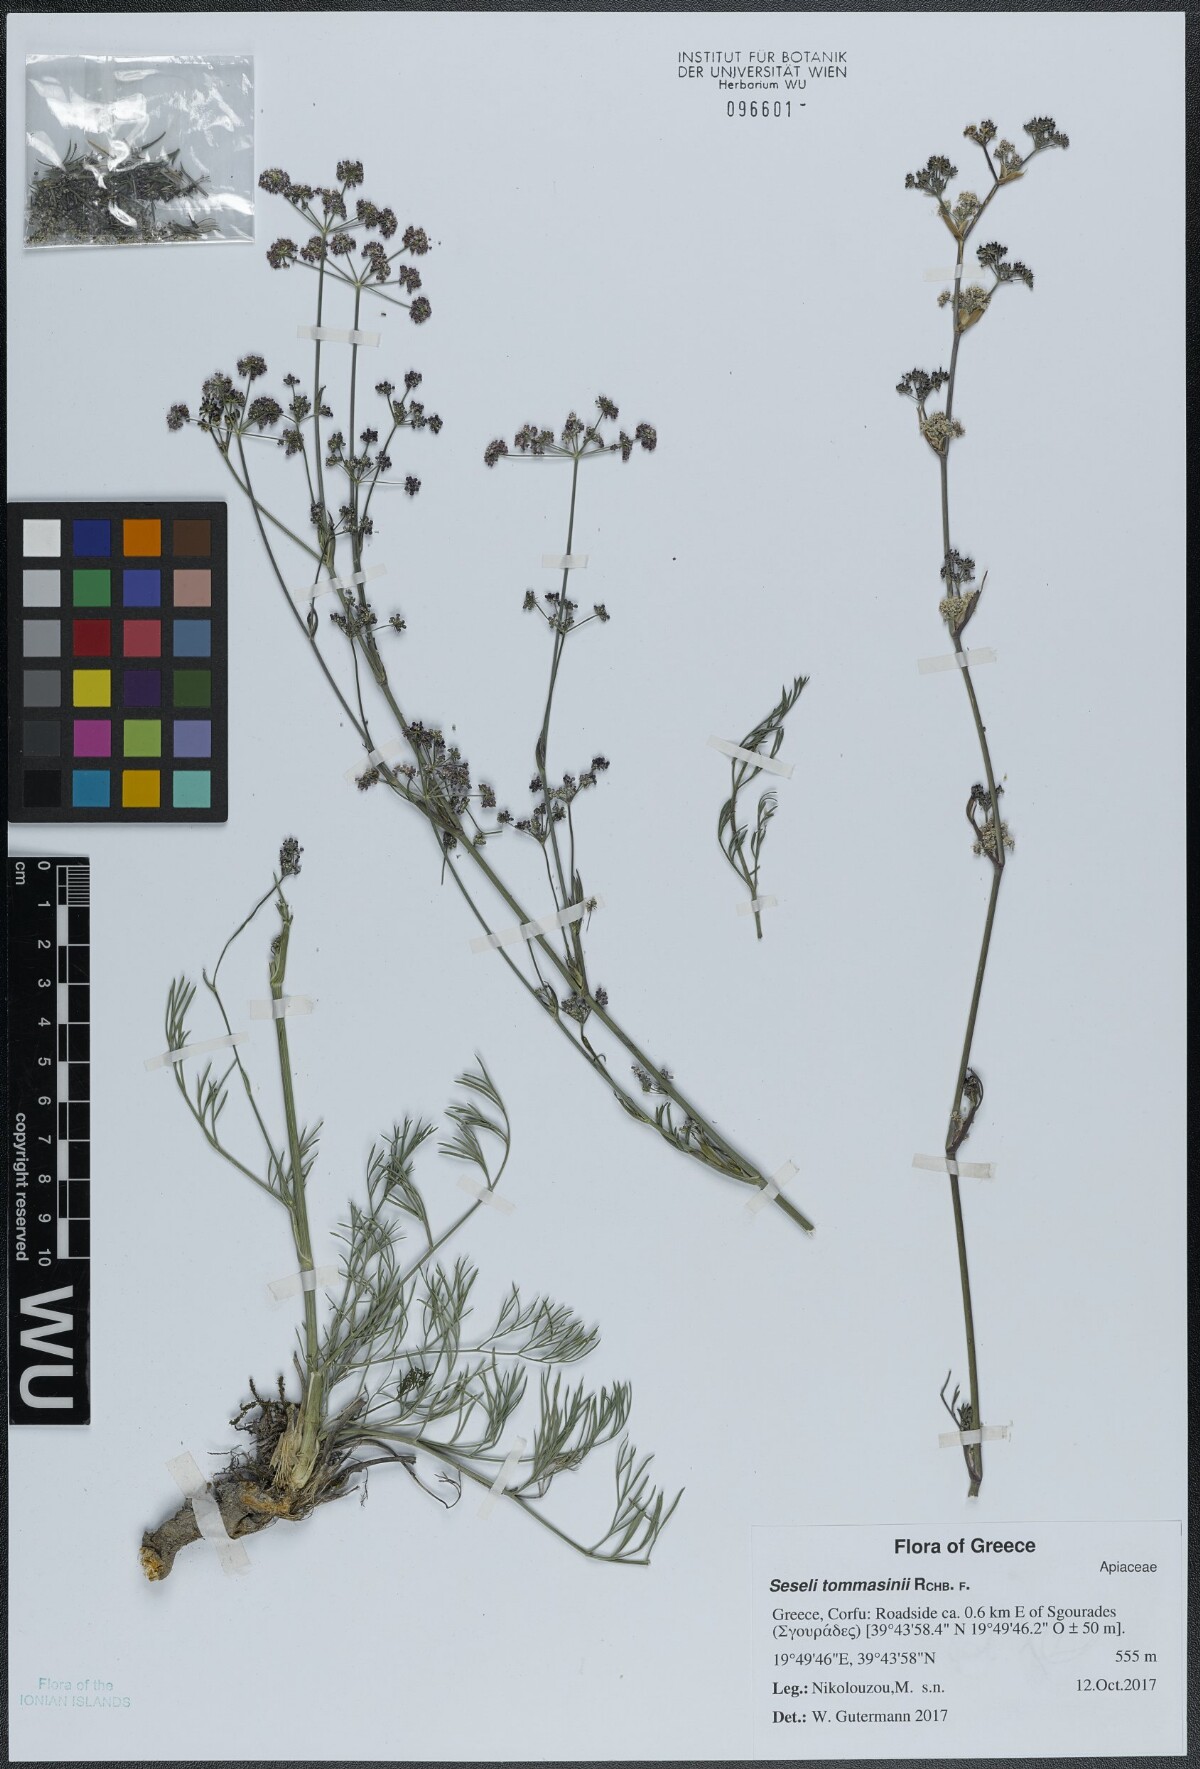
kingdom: Plantae
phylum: Tracheophyta
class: Magnoliopsida
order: Apiales
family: Apiaceae
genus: Seseli
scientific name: Seseli montanum
